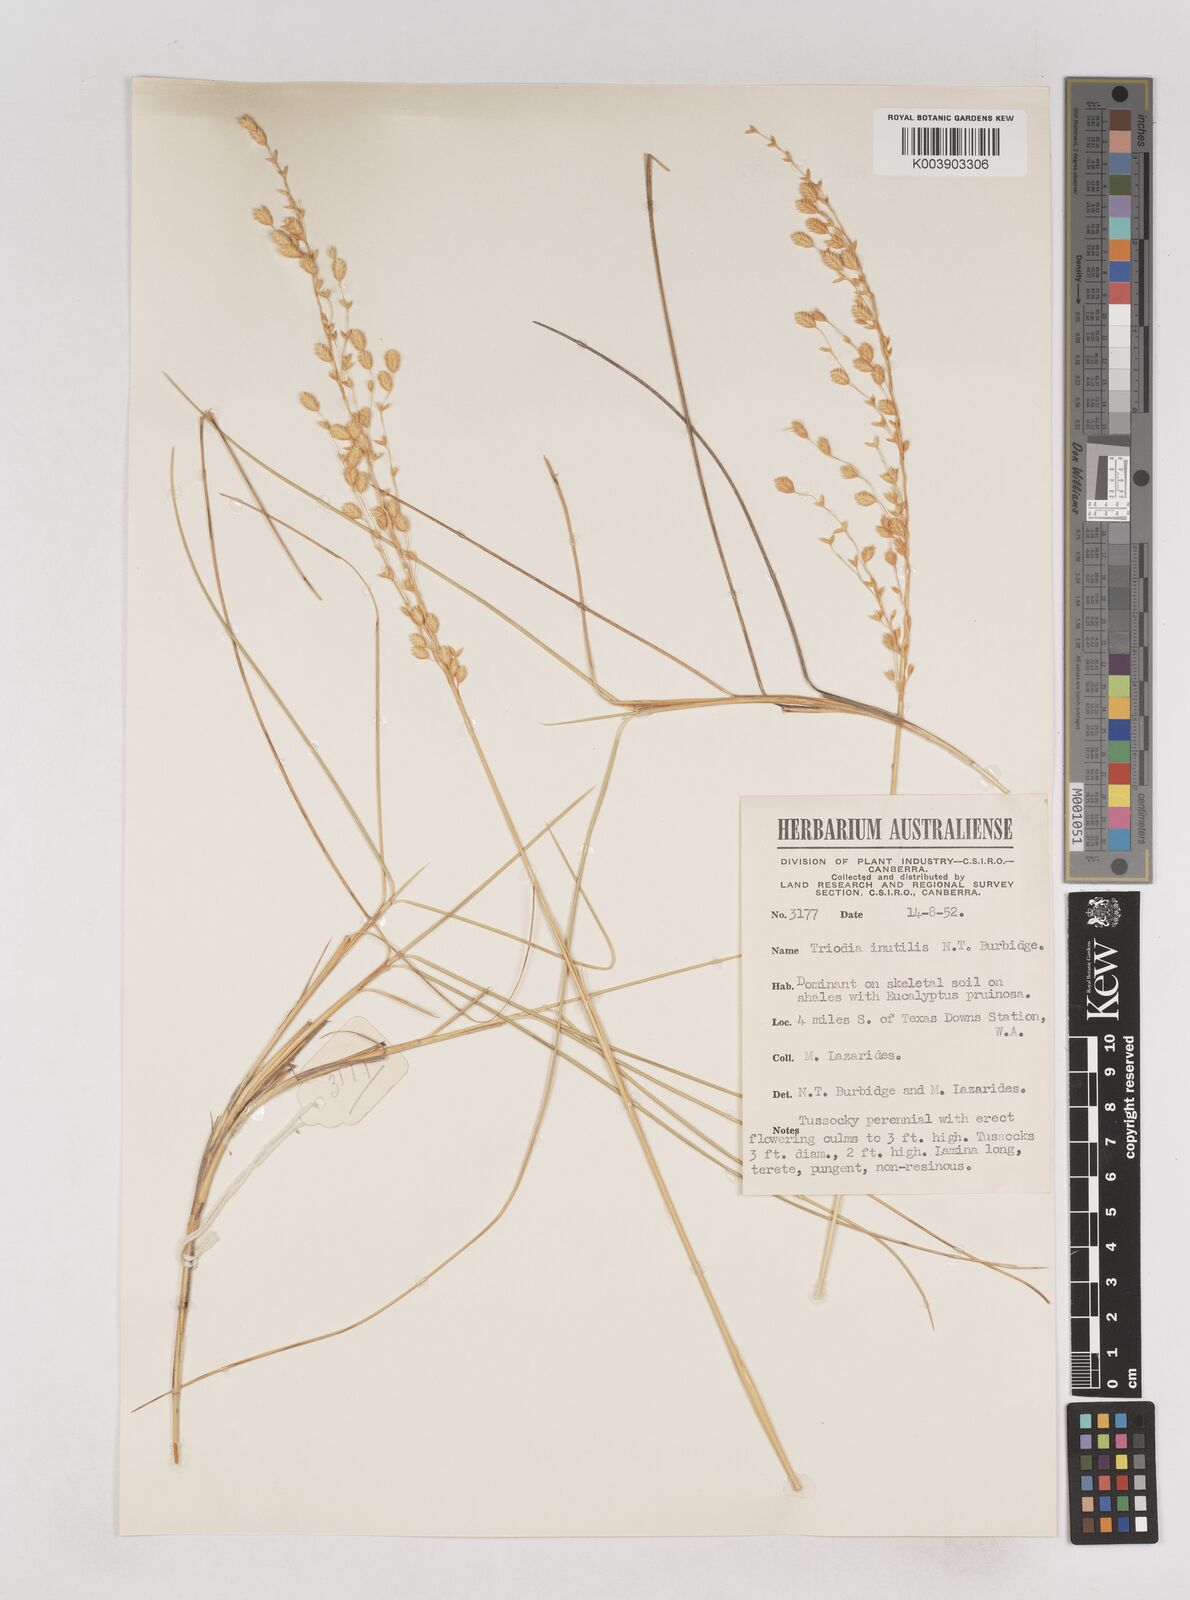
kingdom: Plantae
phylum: Tracheophyta
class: Liliopsida
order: Poales
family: Poaceae
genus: Triodia
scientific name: Triodia inutilis
